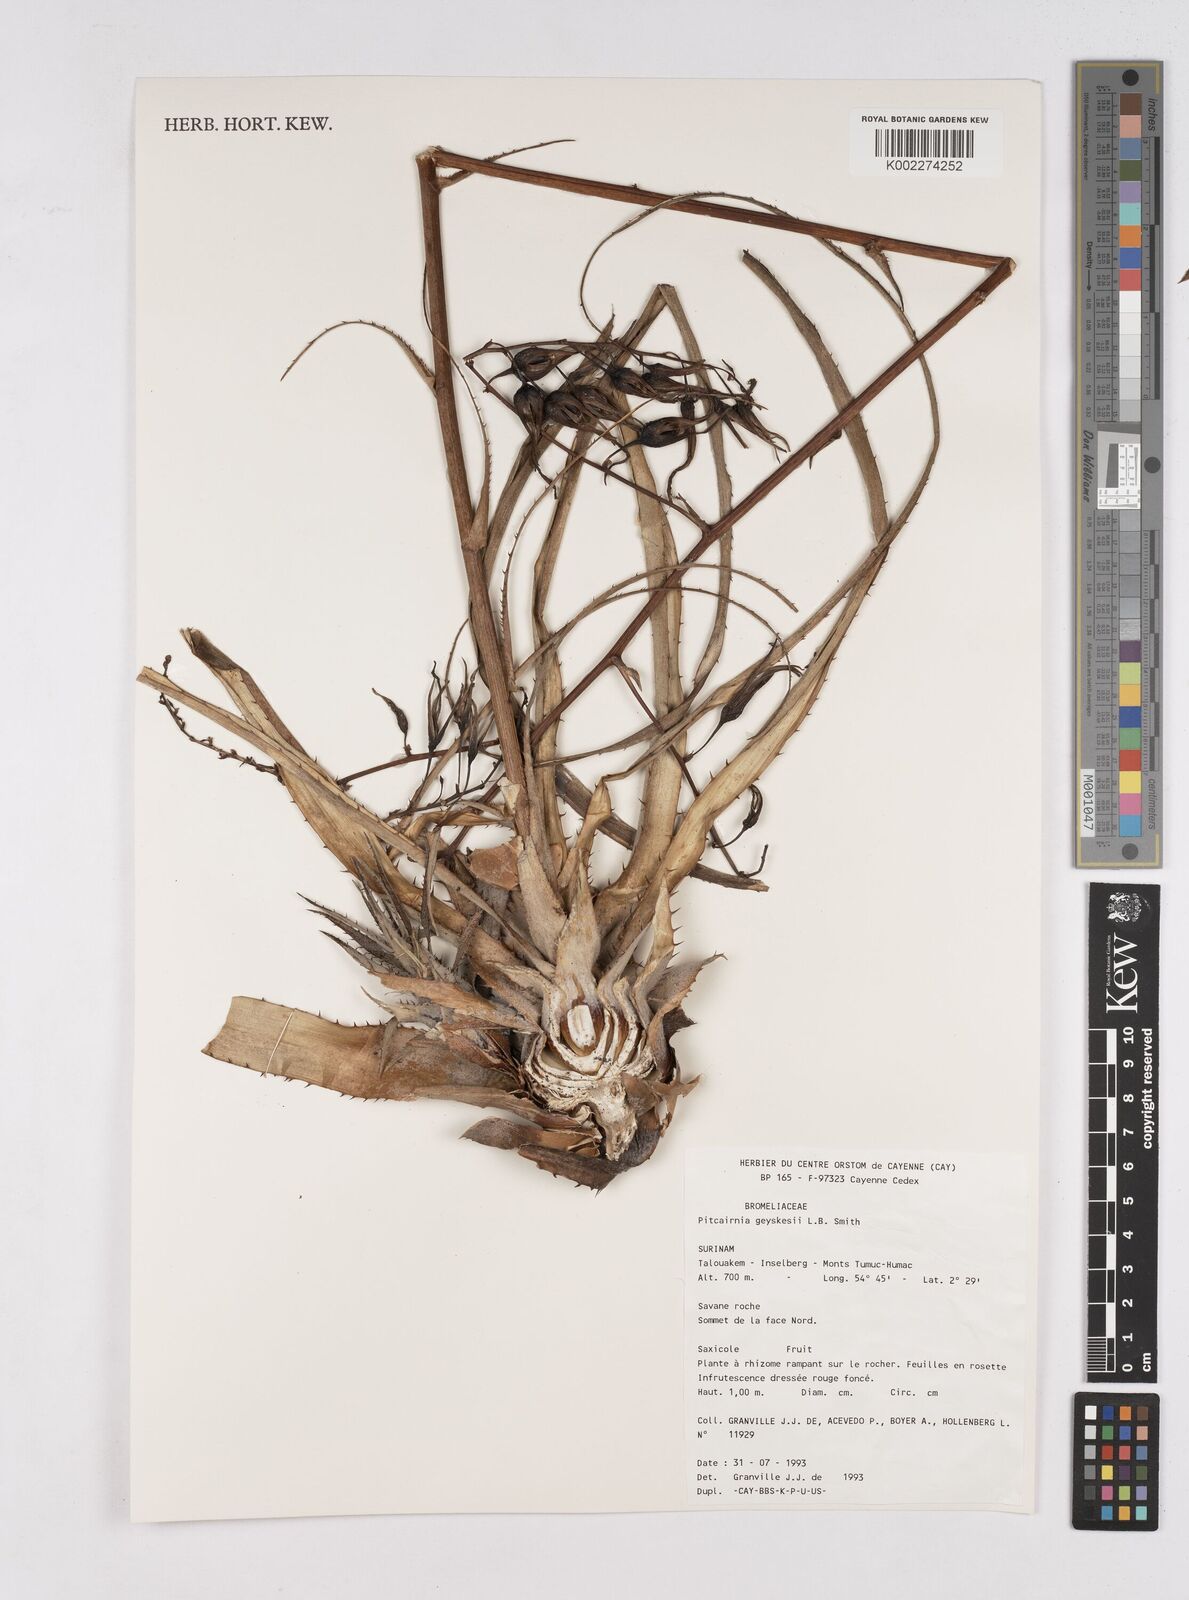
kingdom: Plantae
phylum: Tracheophyta
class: Liliopsida
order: Poales
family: Bromeliaceae
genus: Pitcairnia
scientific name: Pitcairnia geyskesii
